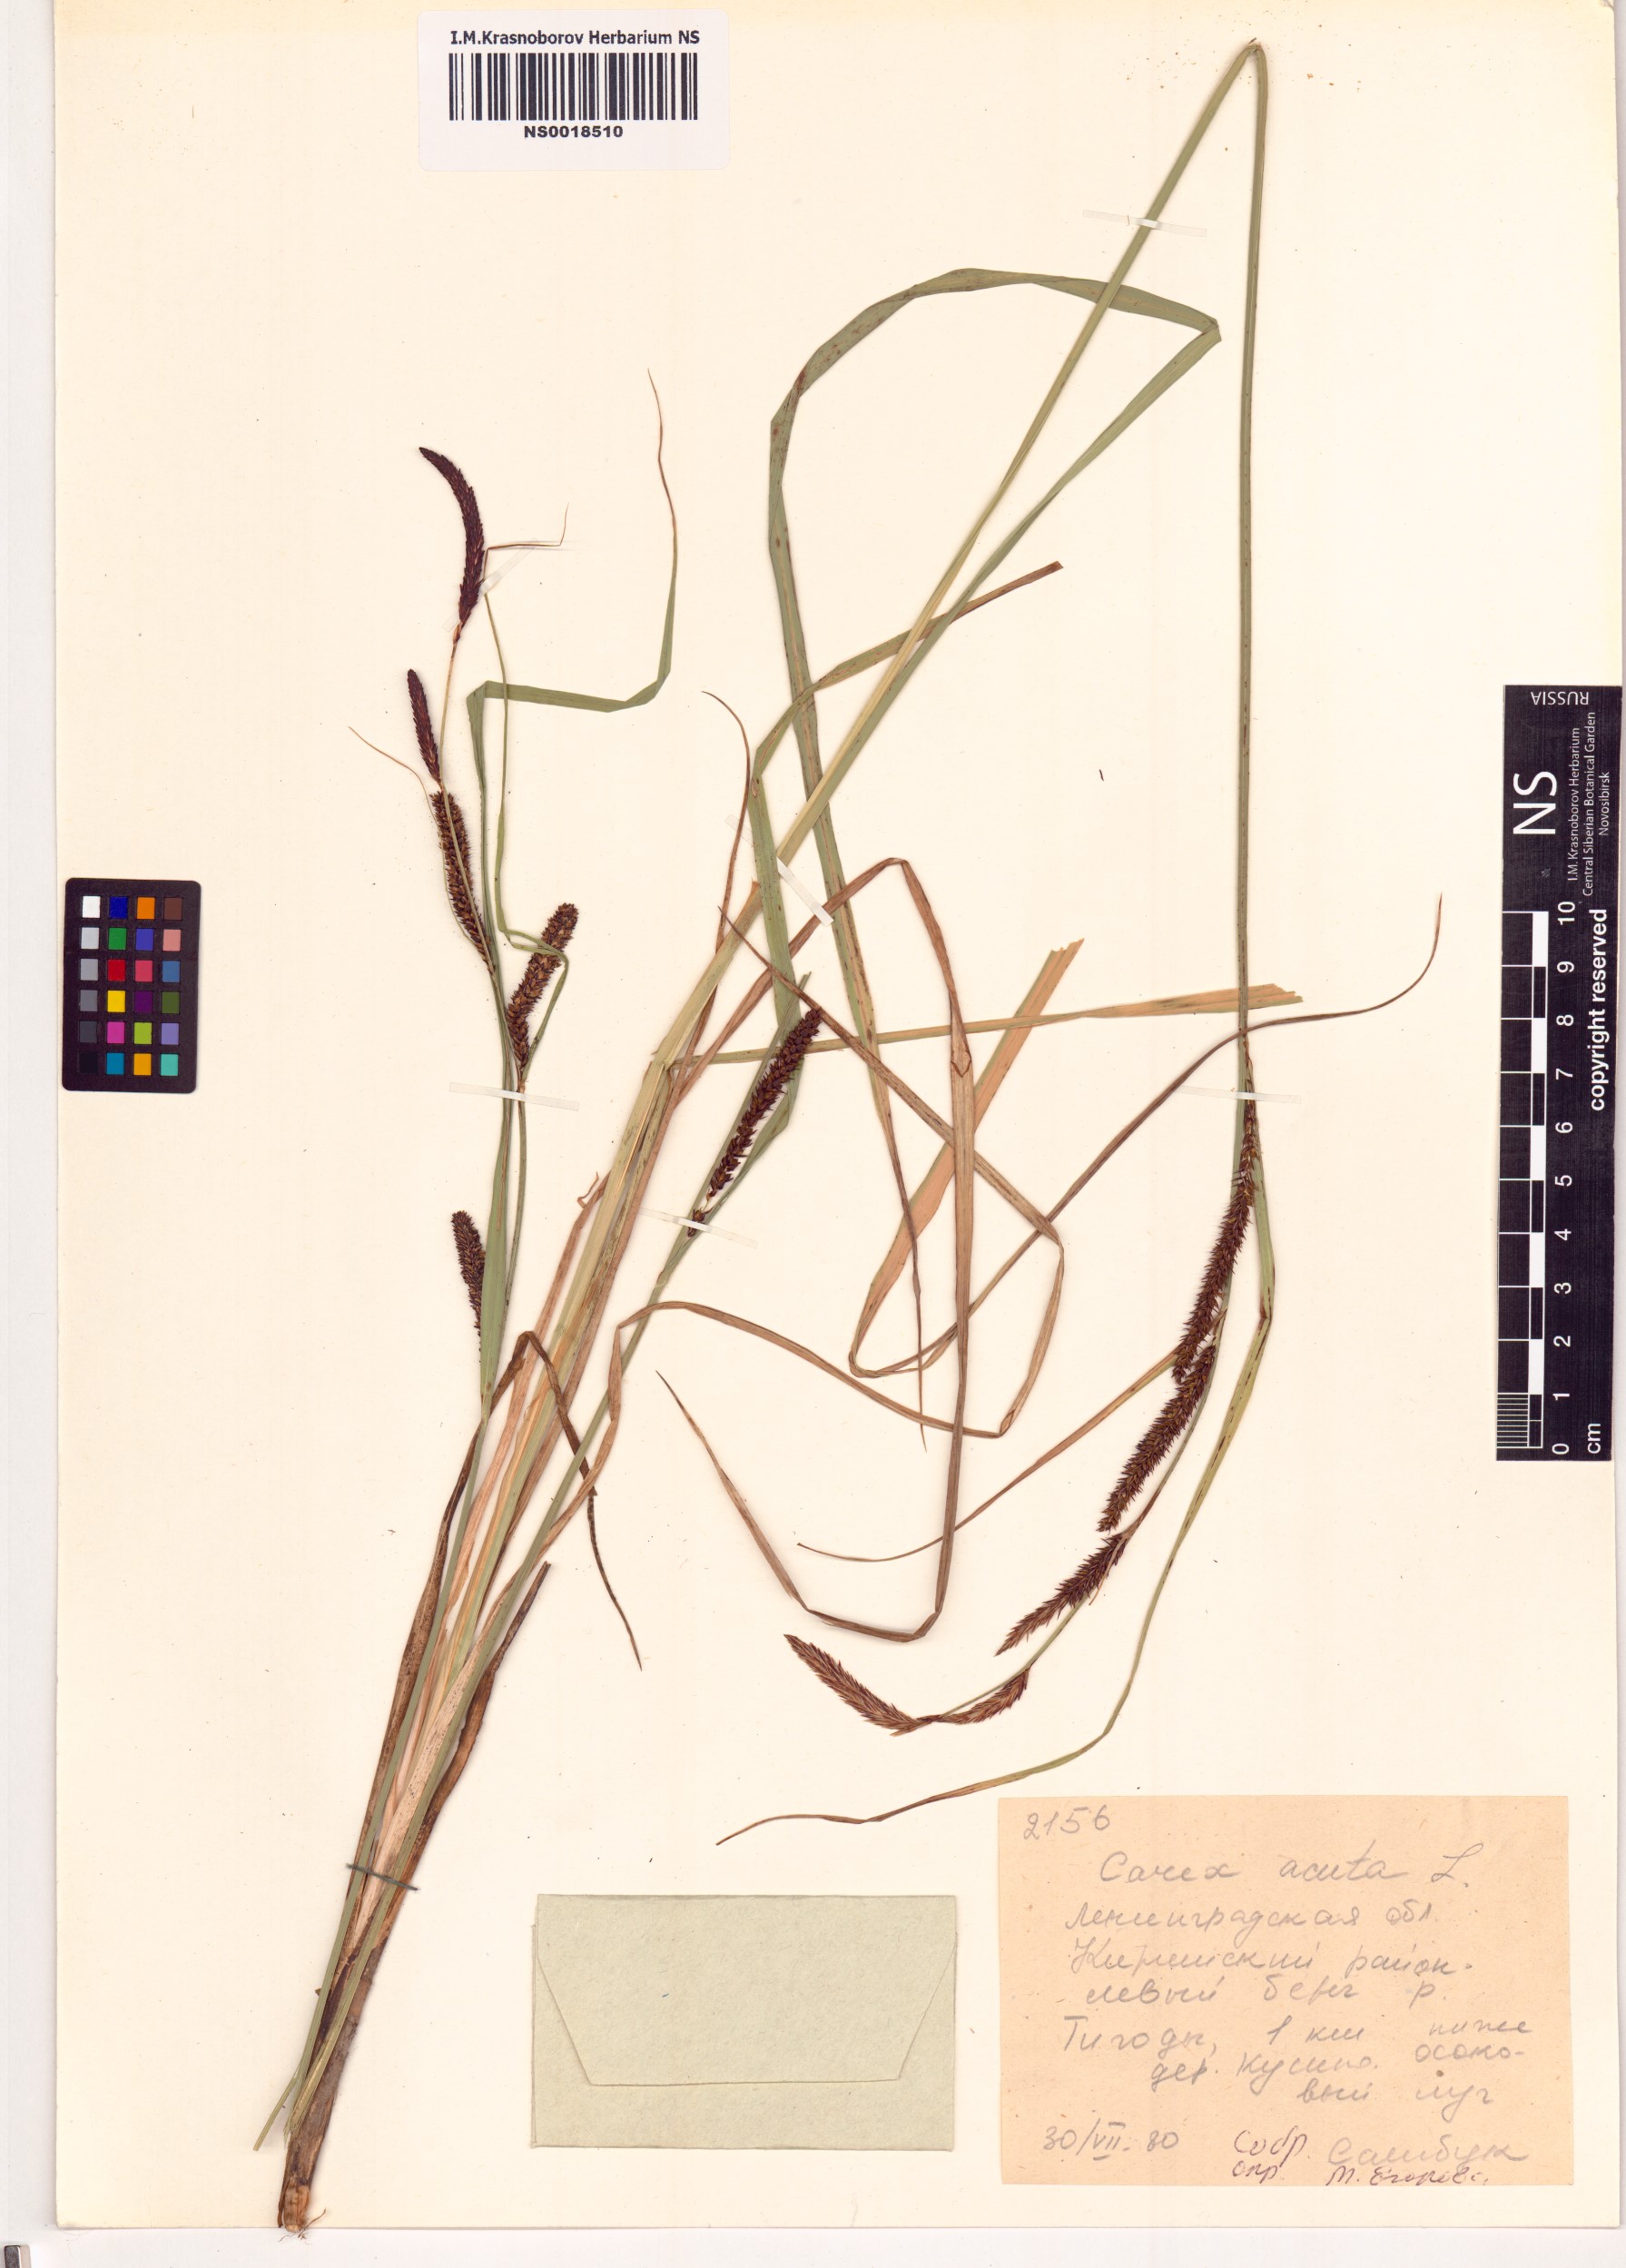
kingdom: Plantae
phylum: Tracheophyta
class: Liliopsida
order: Poales
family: Cyperaceae
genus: Carex
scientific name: Carex acuta
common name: Slender tufted-sedge
